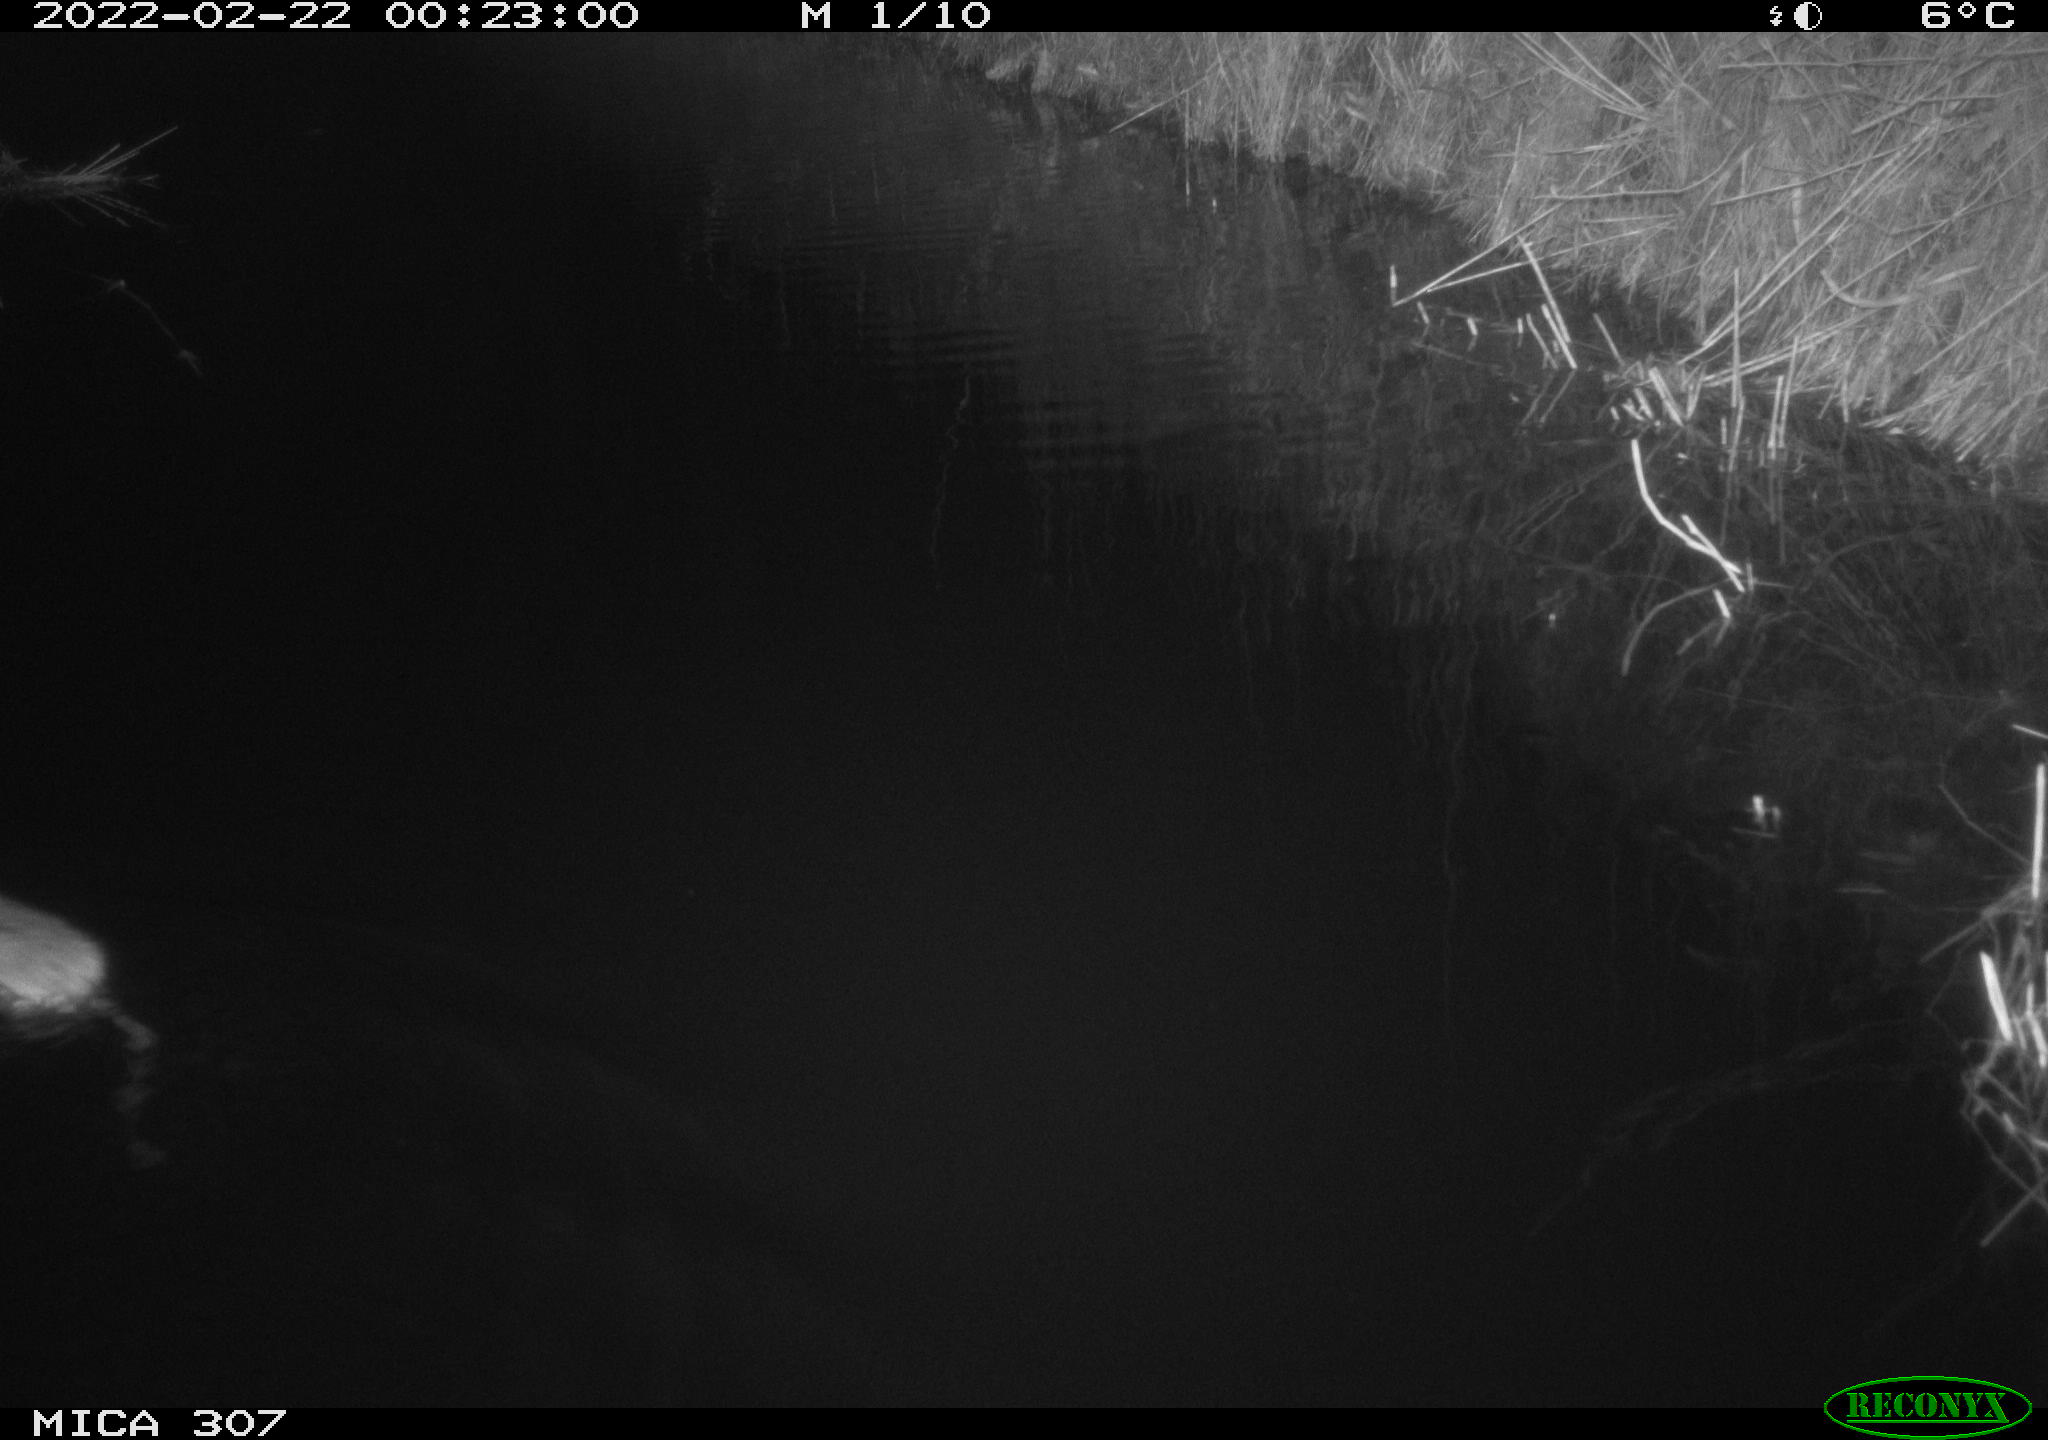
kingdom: Animalia
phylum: Chordata
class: Mammalia
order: Rodentia
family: Muridae
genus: Rattus
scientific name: Rattus norvegicus
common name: Brown rat
